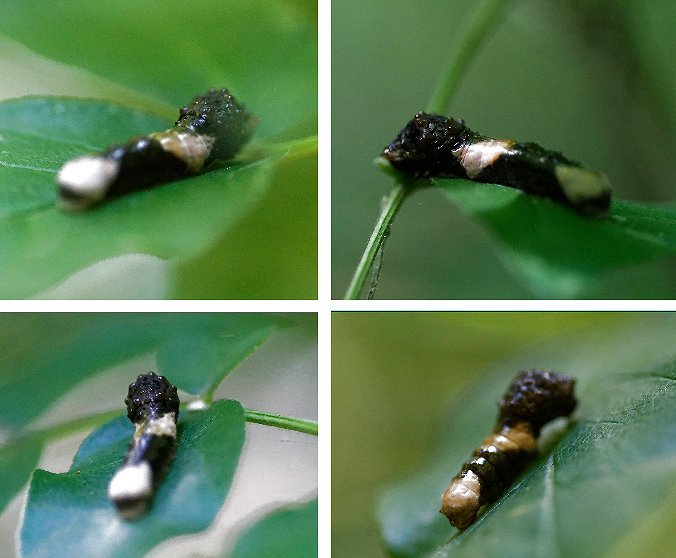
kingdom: Animalia
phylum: Arthropoda
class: Insecta
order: Lepidoptera
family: Papilionidae
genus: Papilio
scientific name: Papilio cresphontes
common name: Eastern Giant Swallowtail
